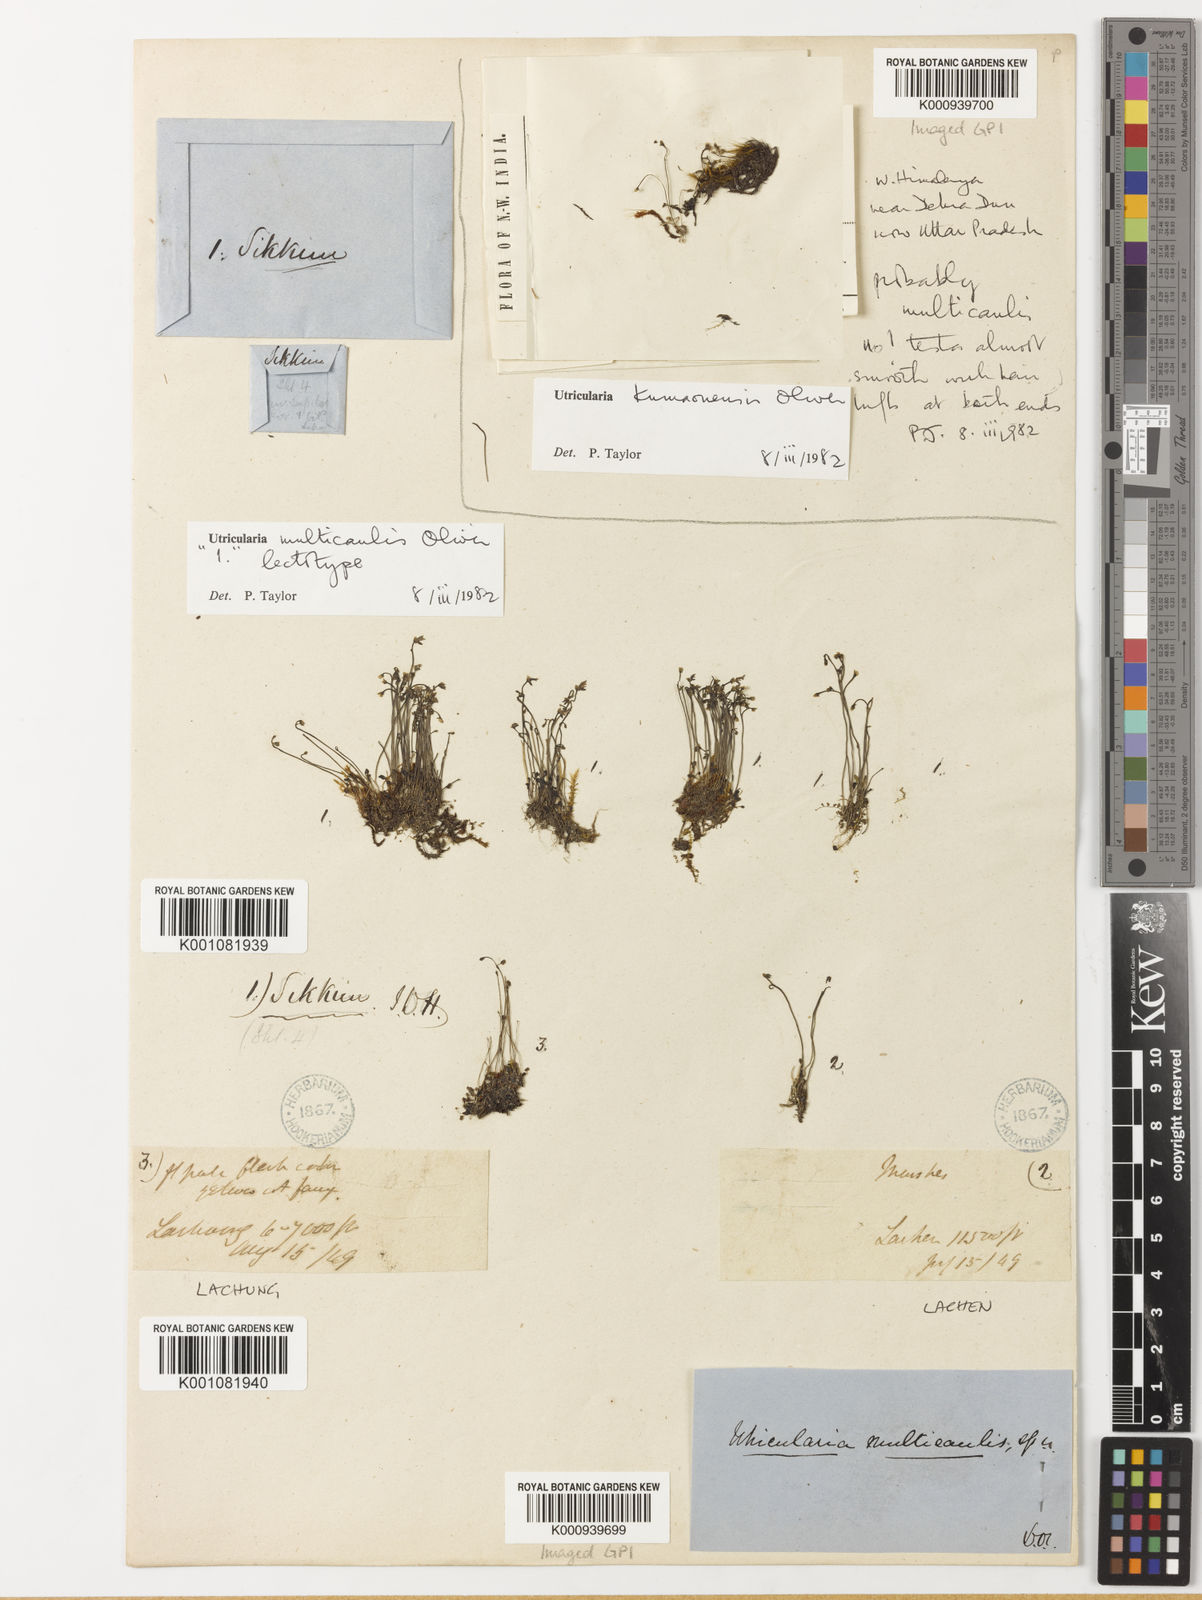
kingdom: Plantae
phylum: Tracheophyta
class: Magnoliopsida
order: Lamiales
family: Lentibulariaceae
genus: Utricularia
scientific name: Utricularia multicaulis
